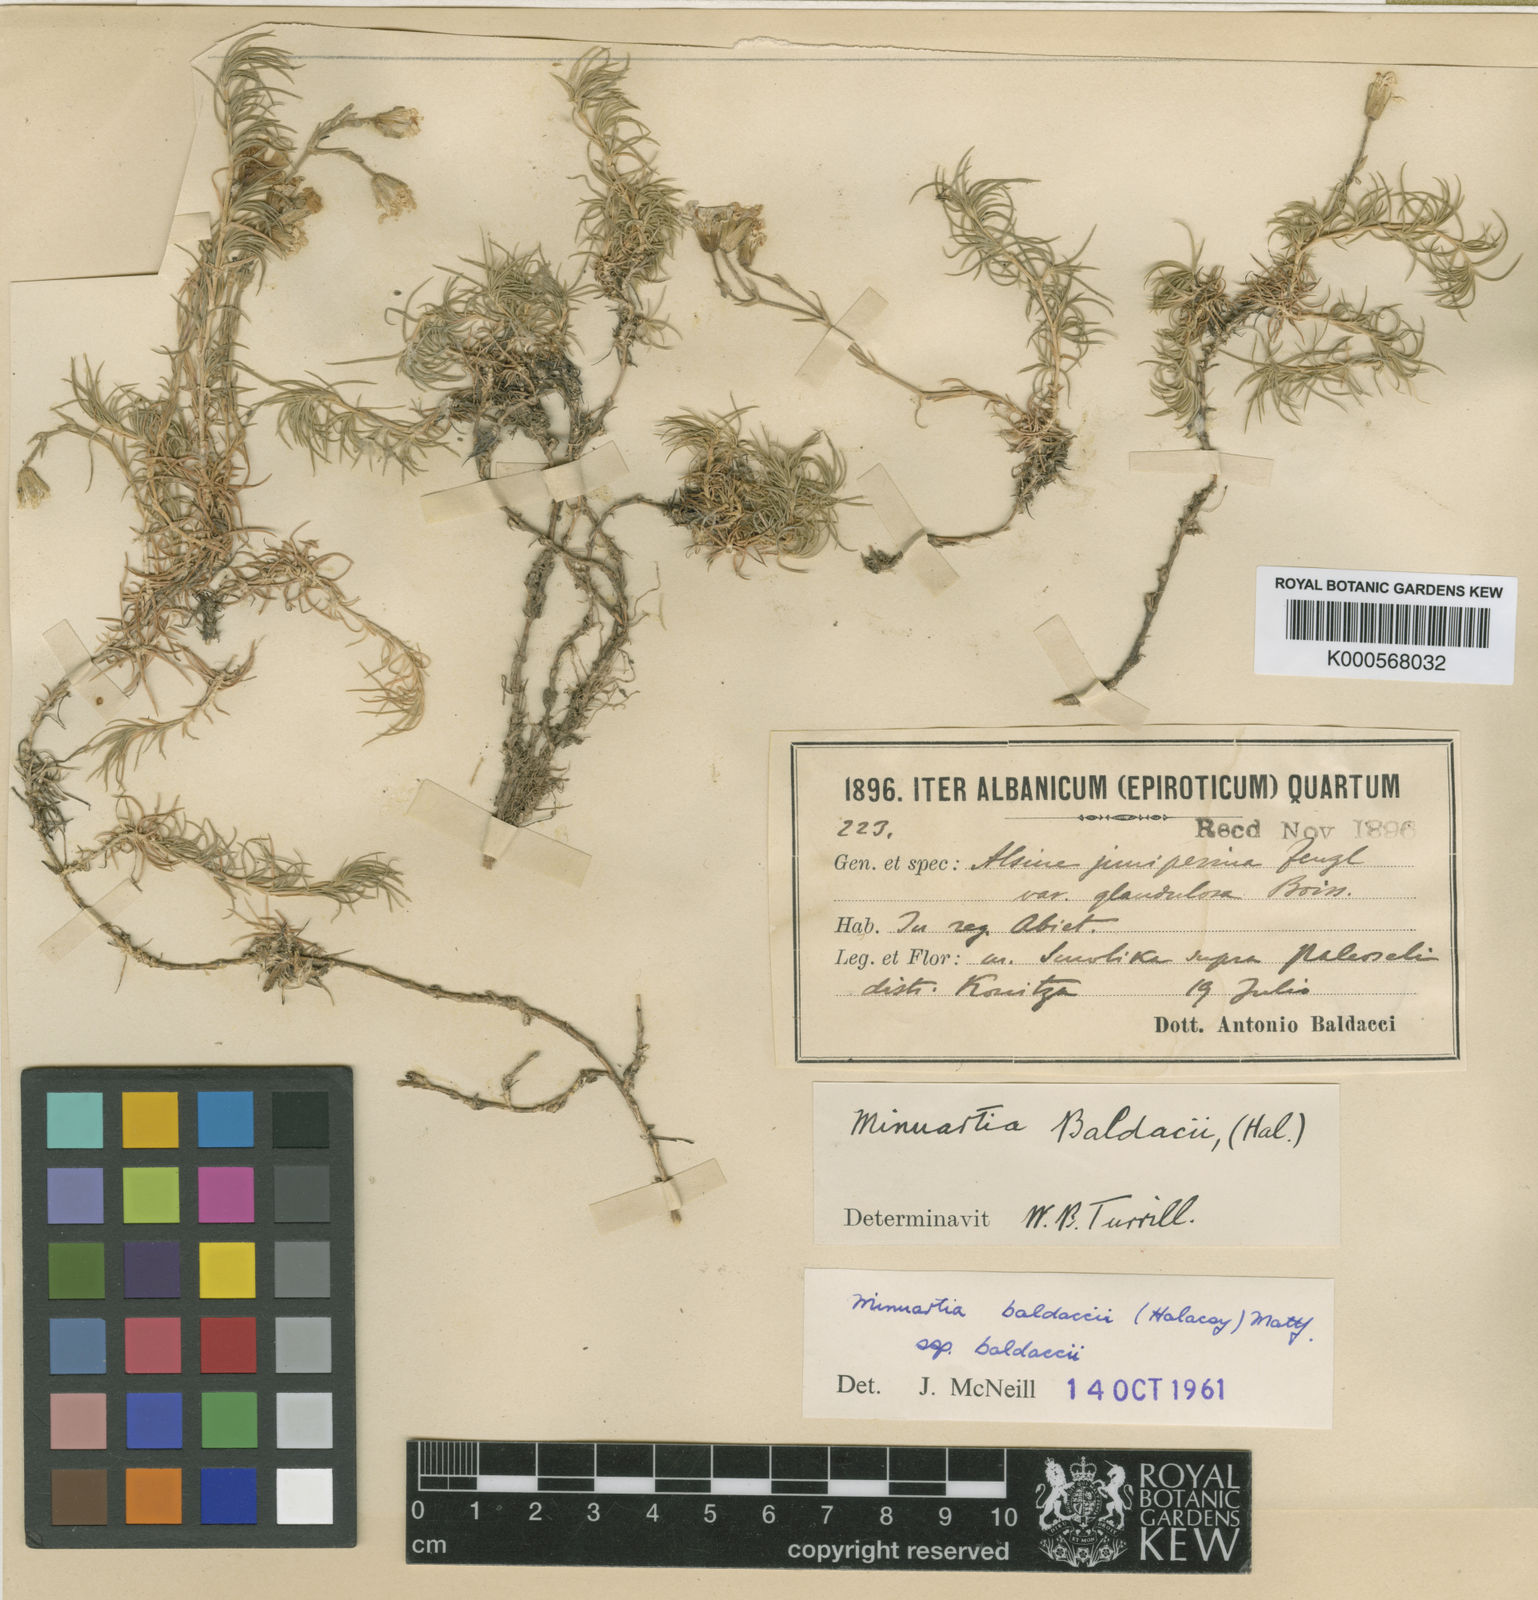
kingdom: Plantae
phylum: Tracheophyta
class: Magnoliopsida
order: Caryophyllales
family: Caryophyllaceae
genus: Minuartia
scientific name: Minuartia
